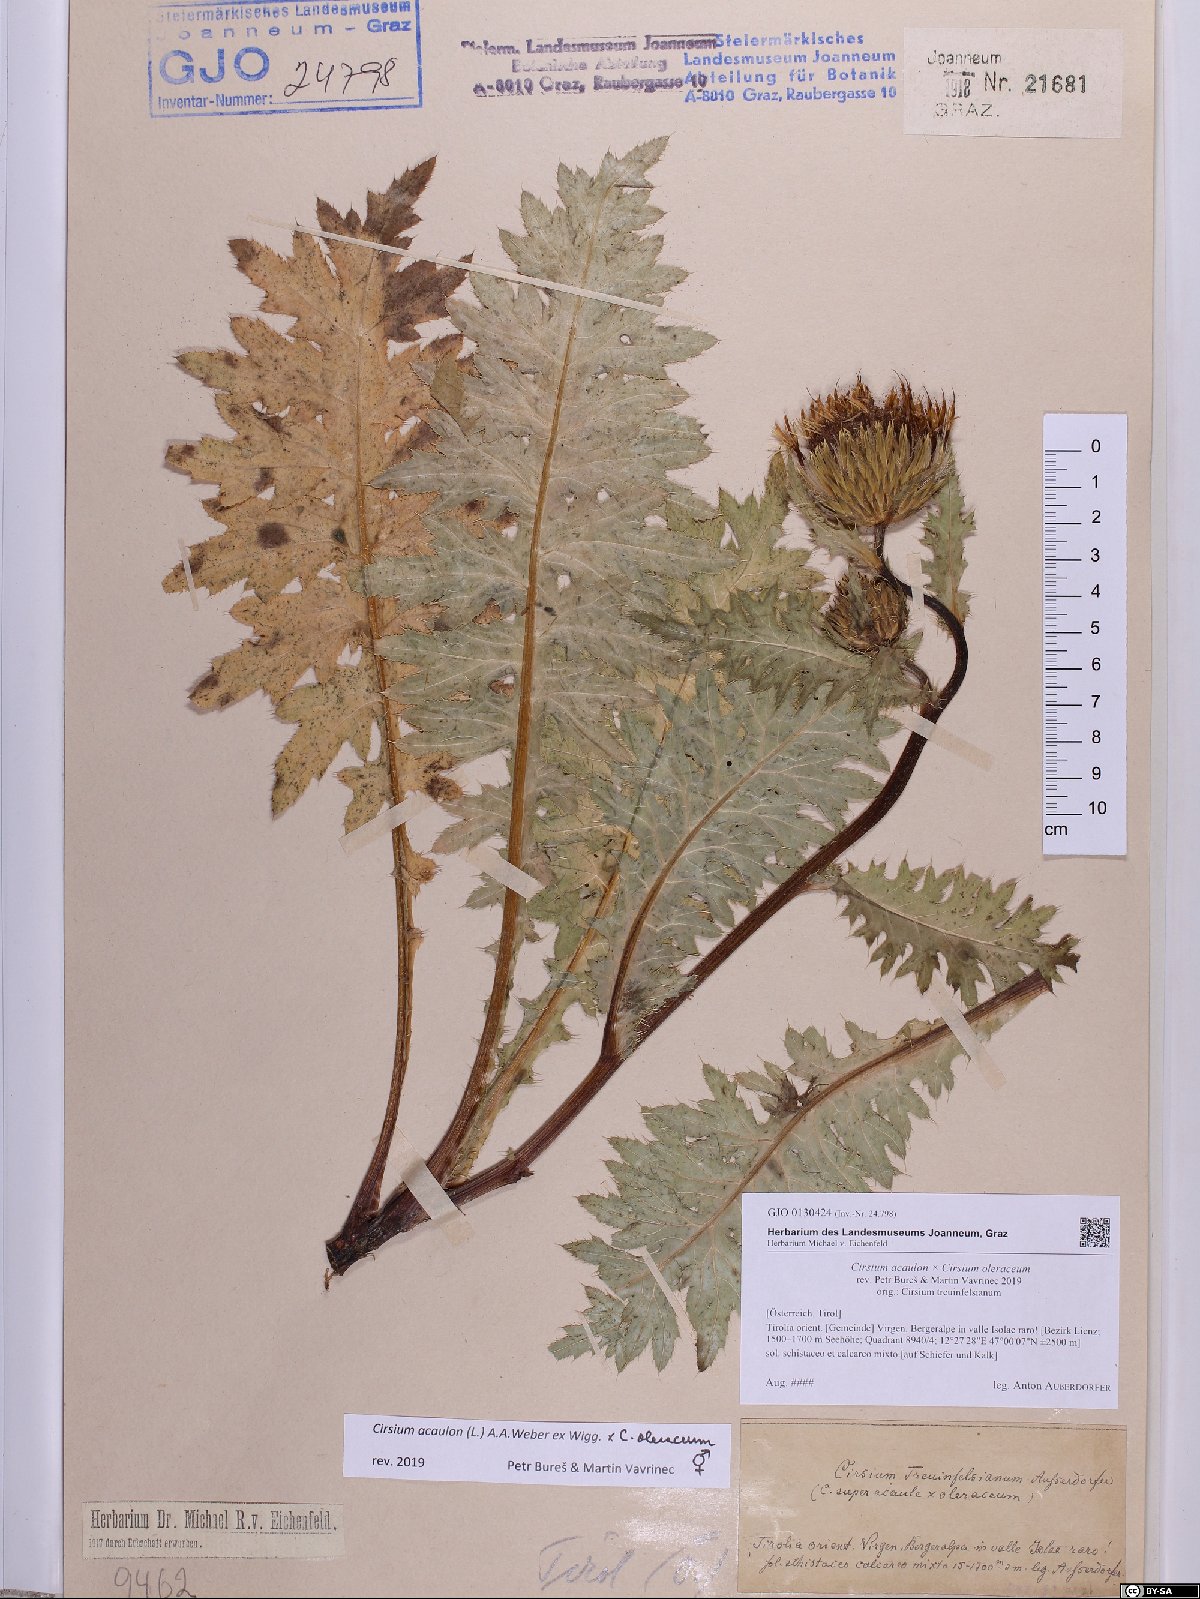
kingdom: Plantae
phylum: Tracheophyta
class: Magnoliopsida
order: Asterales
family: Asteraceae
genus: Cirsium
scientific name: Cirsium rigens
